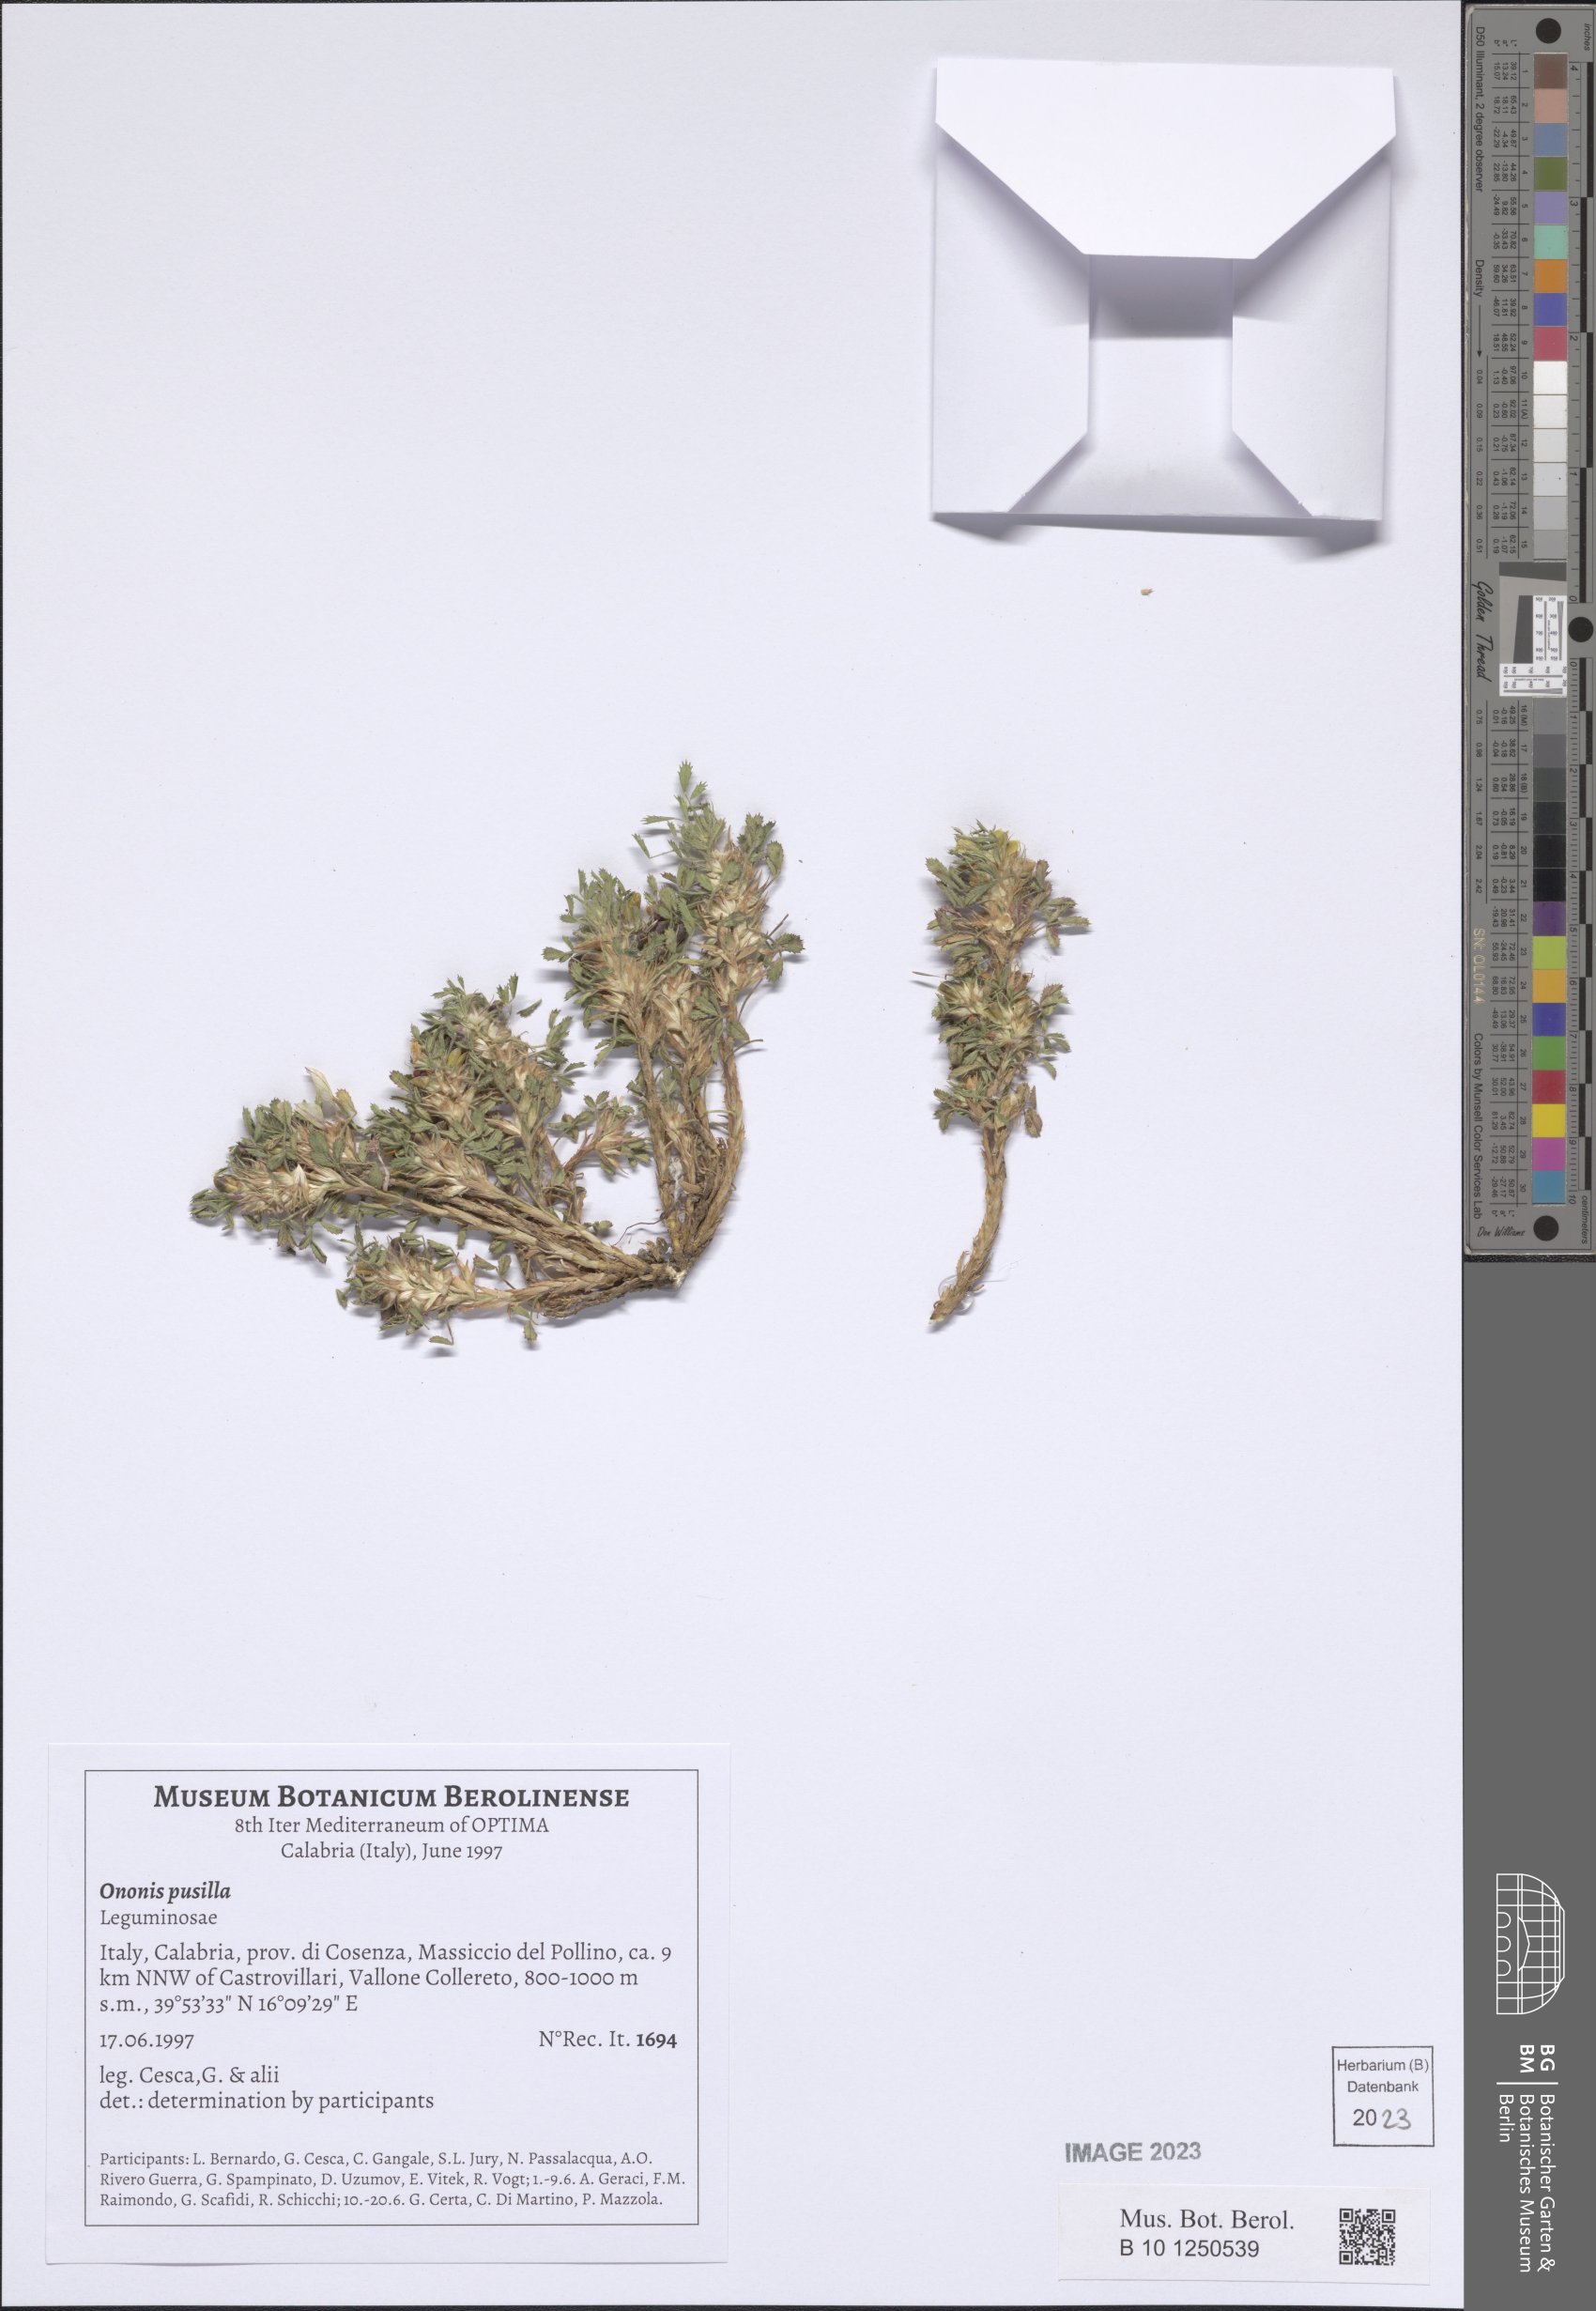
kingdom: Plantae
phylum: Tracheophyta
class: Magnoliopsida
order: Fabales
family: Fabaceae
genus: Ononis
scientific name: Ononis pusilla
